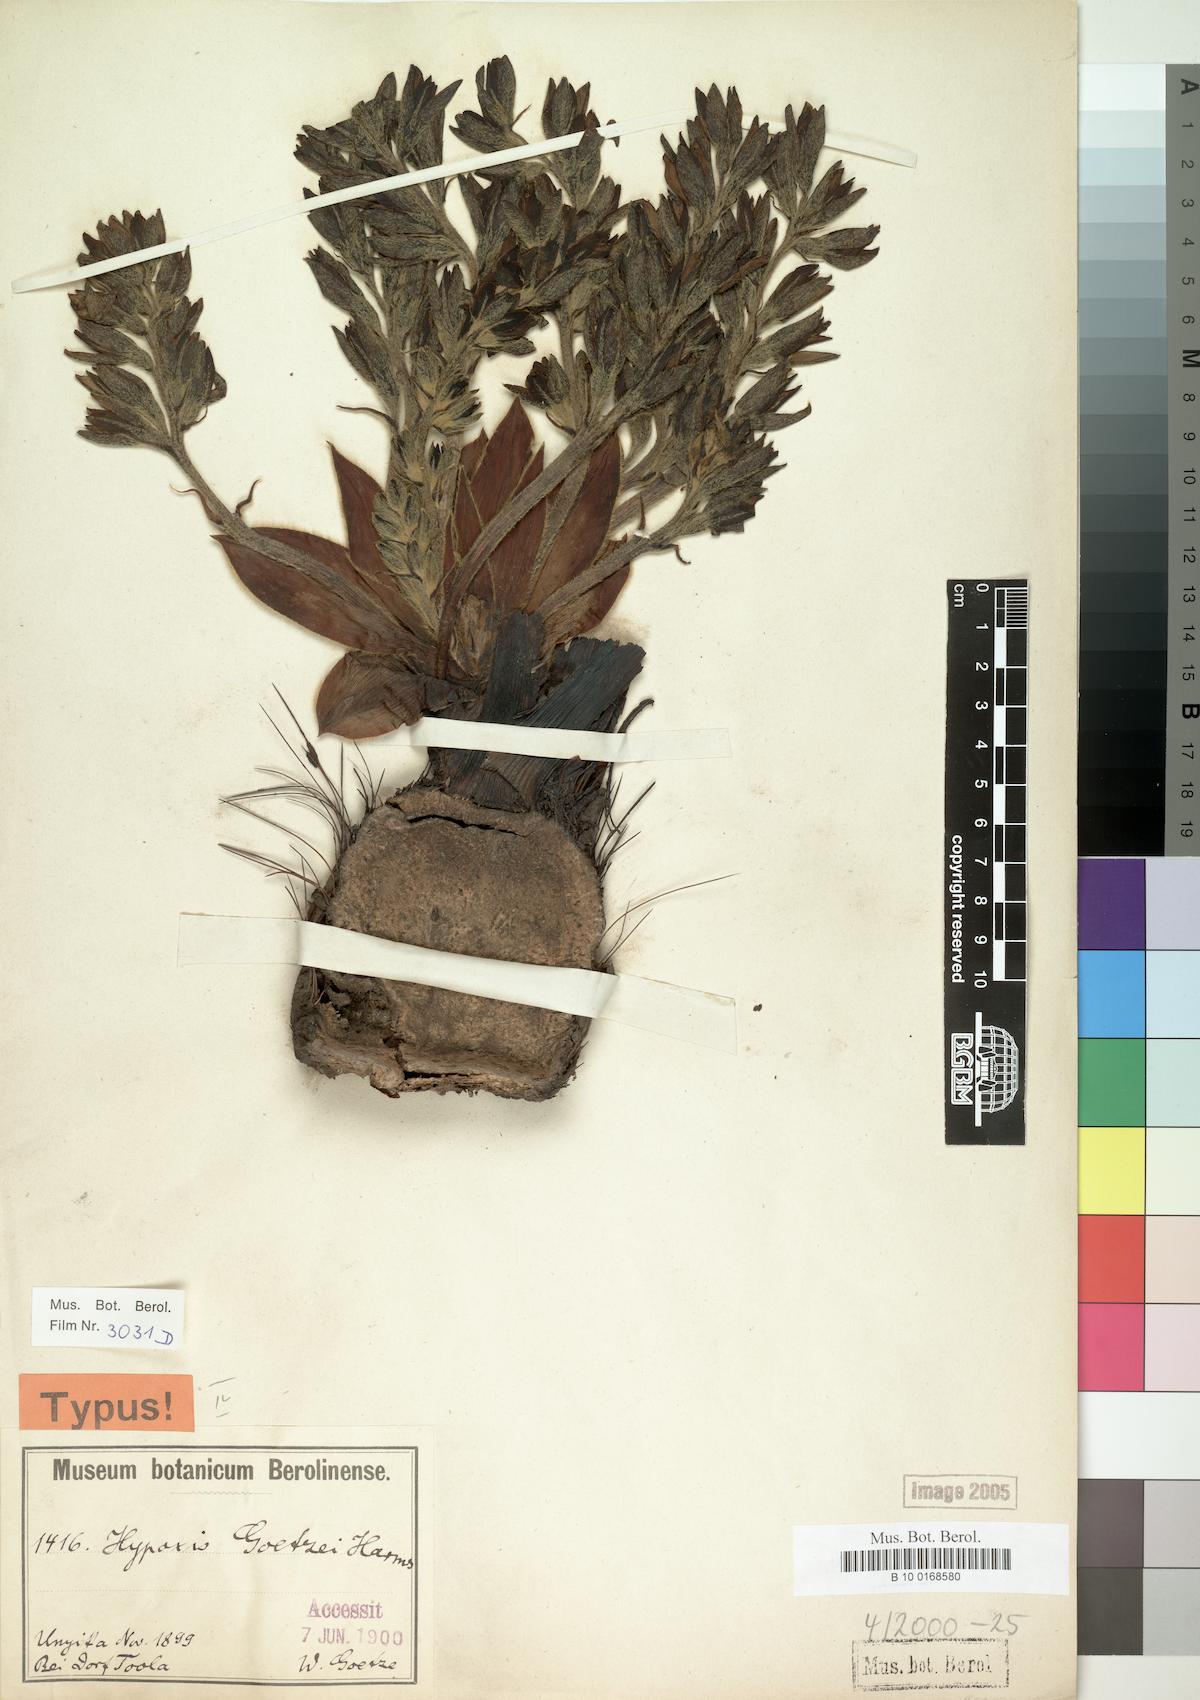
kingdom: Plantae
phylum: Tracheophyta
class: Liliopsida
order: Asparagales
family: Hypoxidaceae
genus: Hypoxis
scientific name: Hypoxis goetzei
